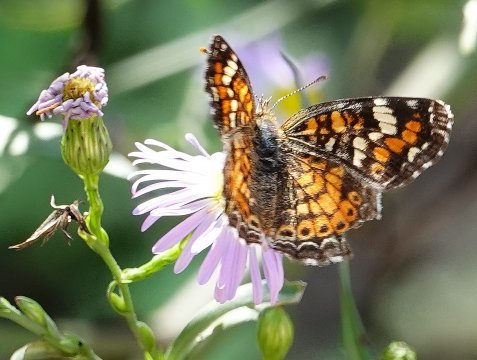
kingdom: Animalia
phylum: Arthropoda
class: Insecta
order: Lepidoptera
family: Nymphalidae
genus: Phyciodes
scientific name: Phyciodes phaon
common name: Phaon Crescent
